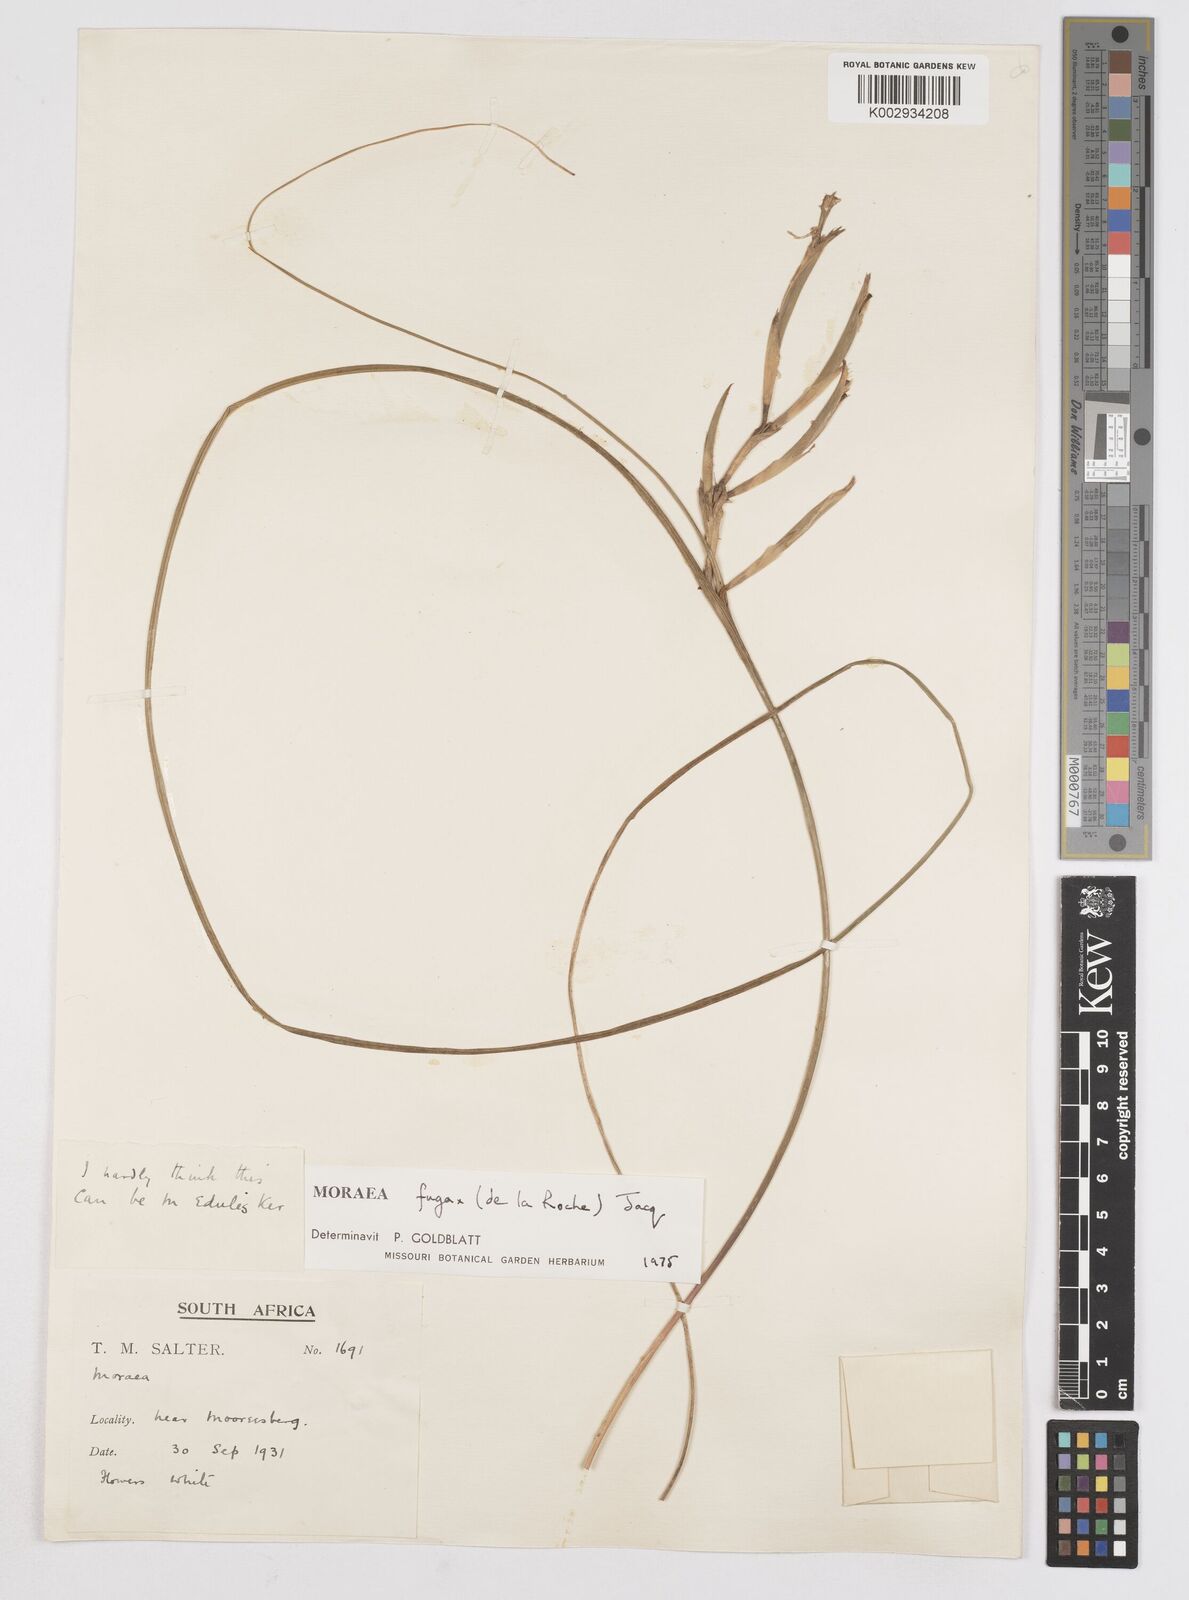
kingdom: Plantae
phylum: Tracheophyta
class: Liliopsida
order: Asparagales
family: Iridaceae
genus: Moraea
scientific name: Moraea fugax
